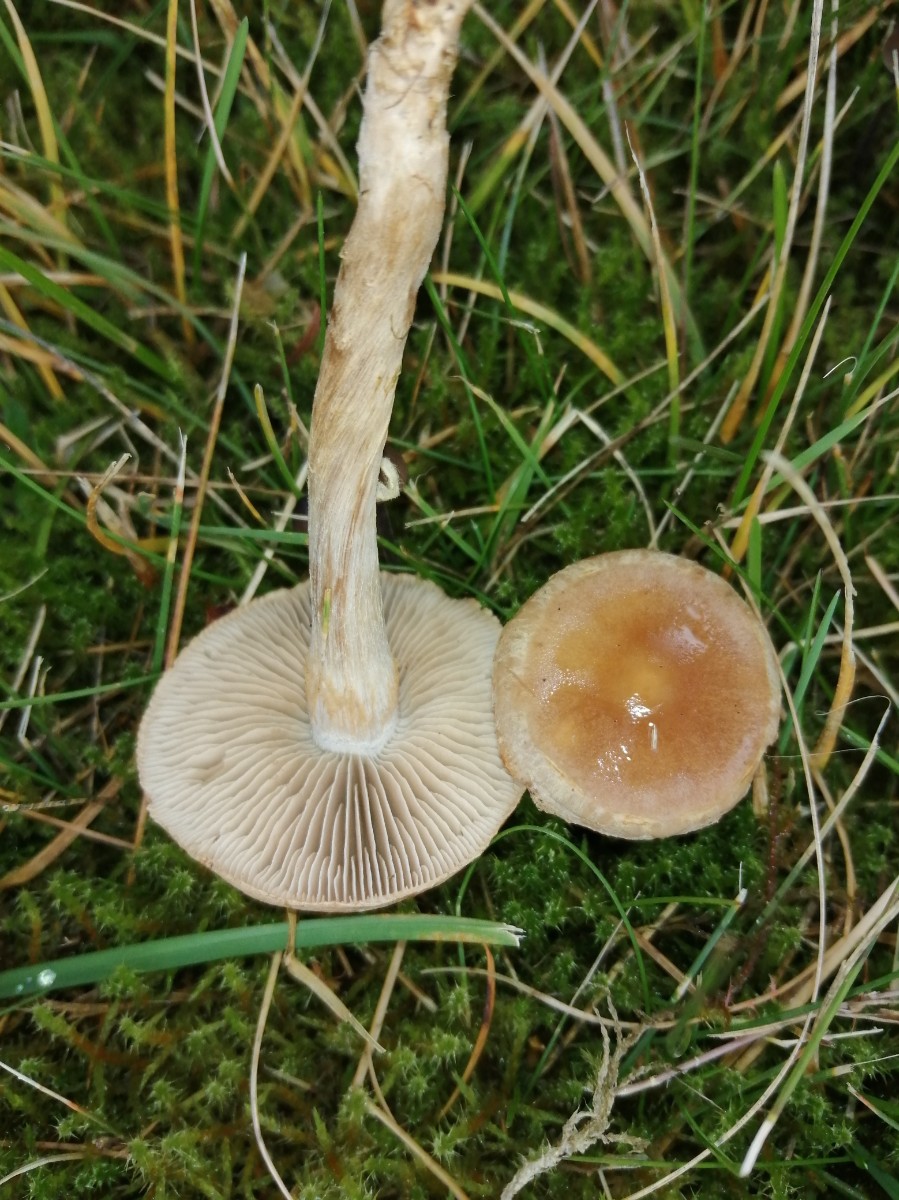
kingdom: Fungi
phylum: Basidiomycota
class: Agaricomycetes
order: Agaricales
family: Hymenogastraceae
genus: Hebeloma
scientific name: Hebeloma mesophaeum
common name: lerbrun tåreblad
